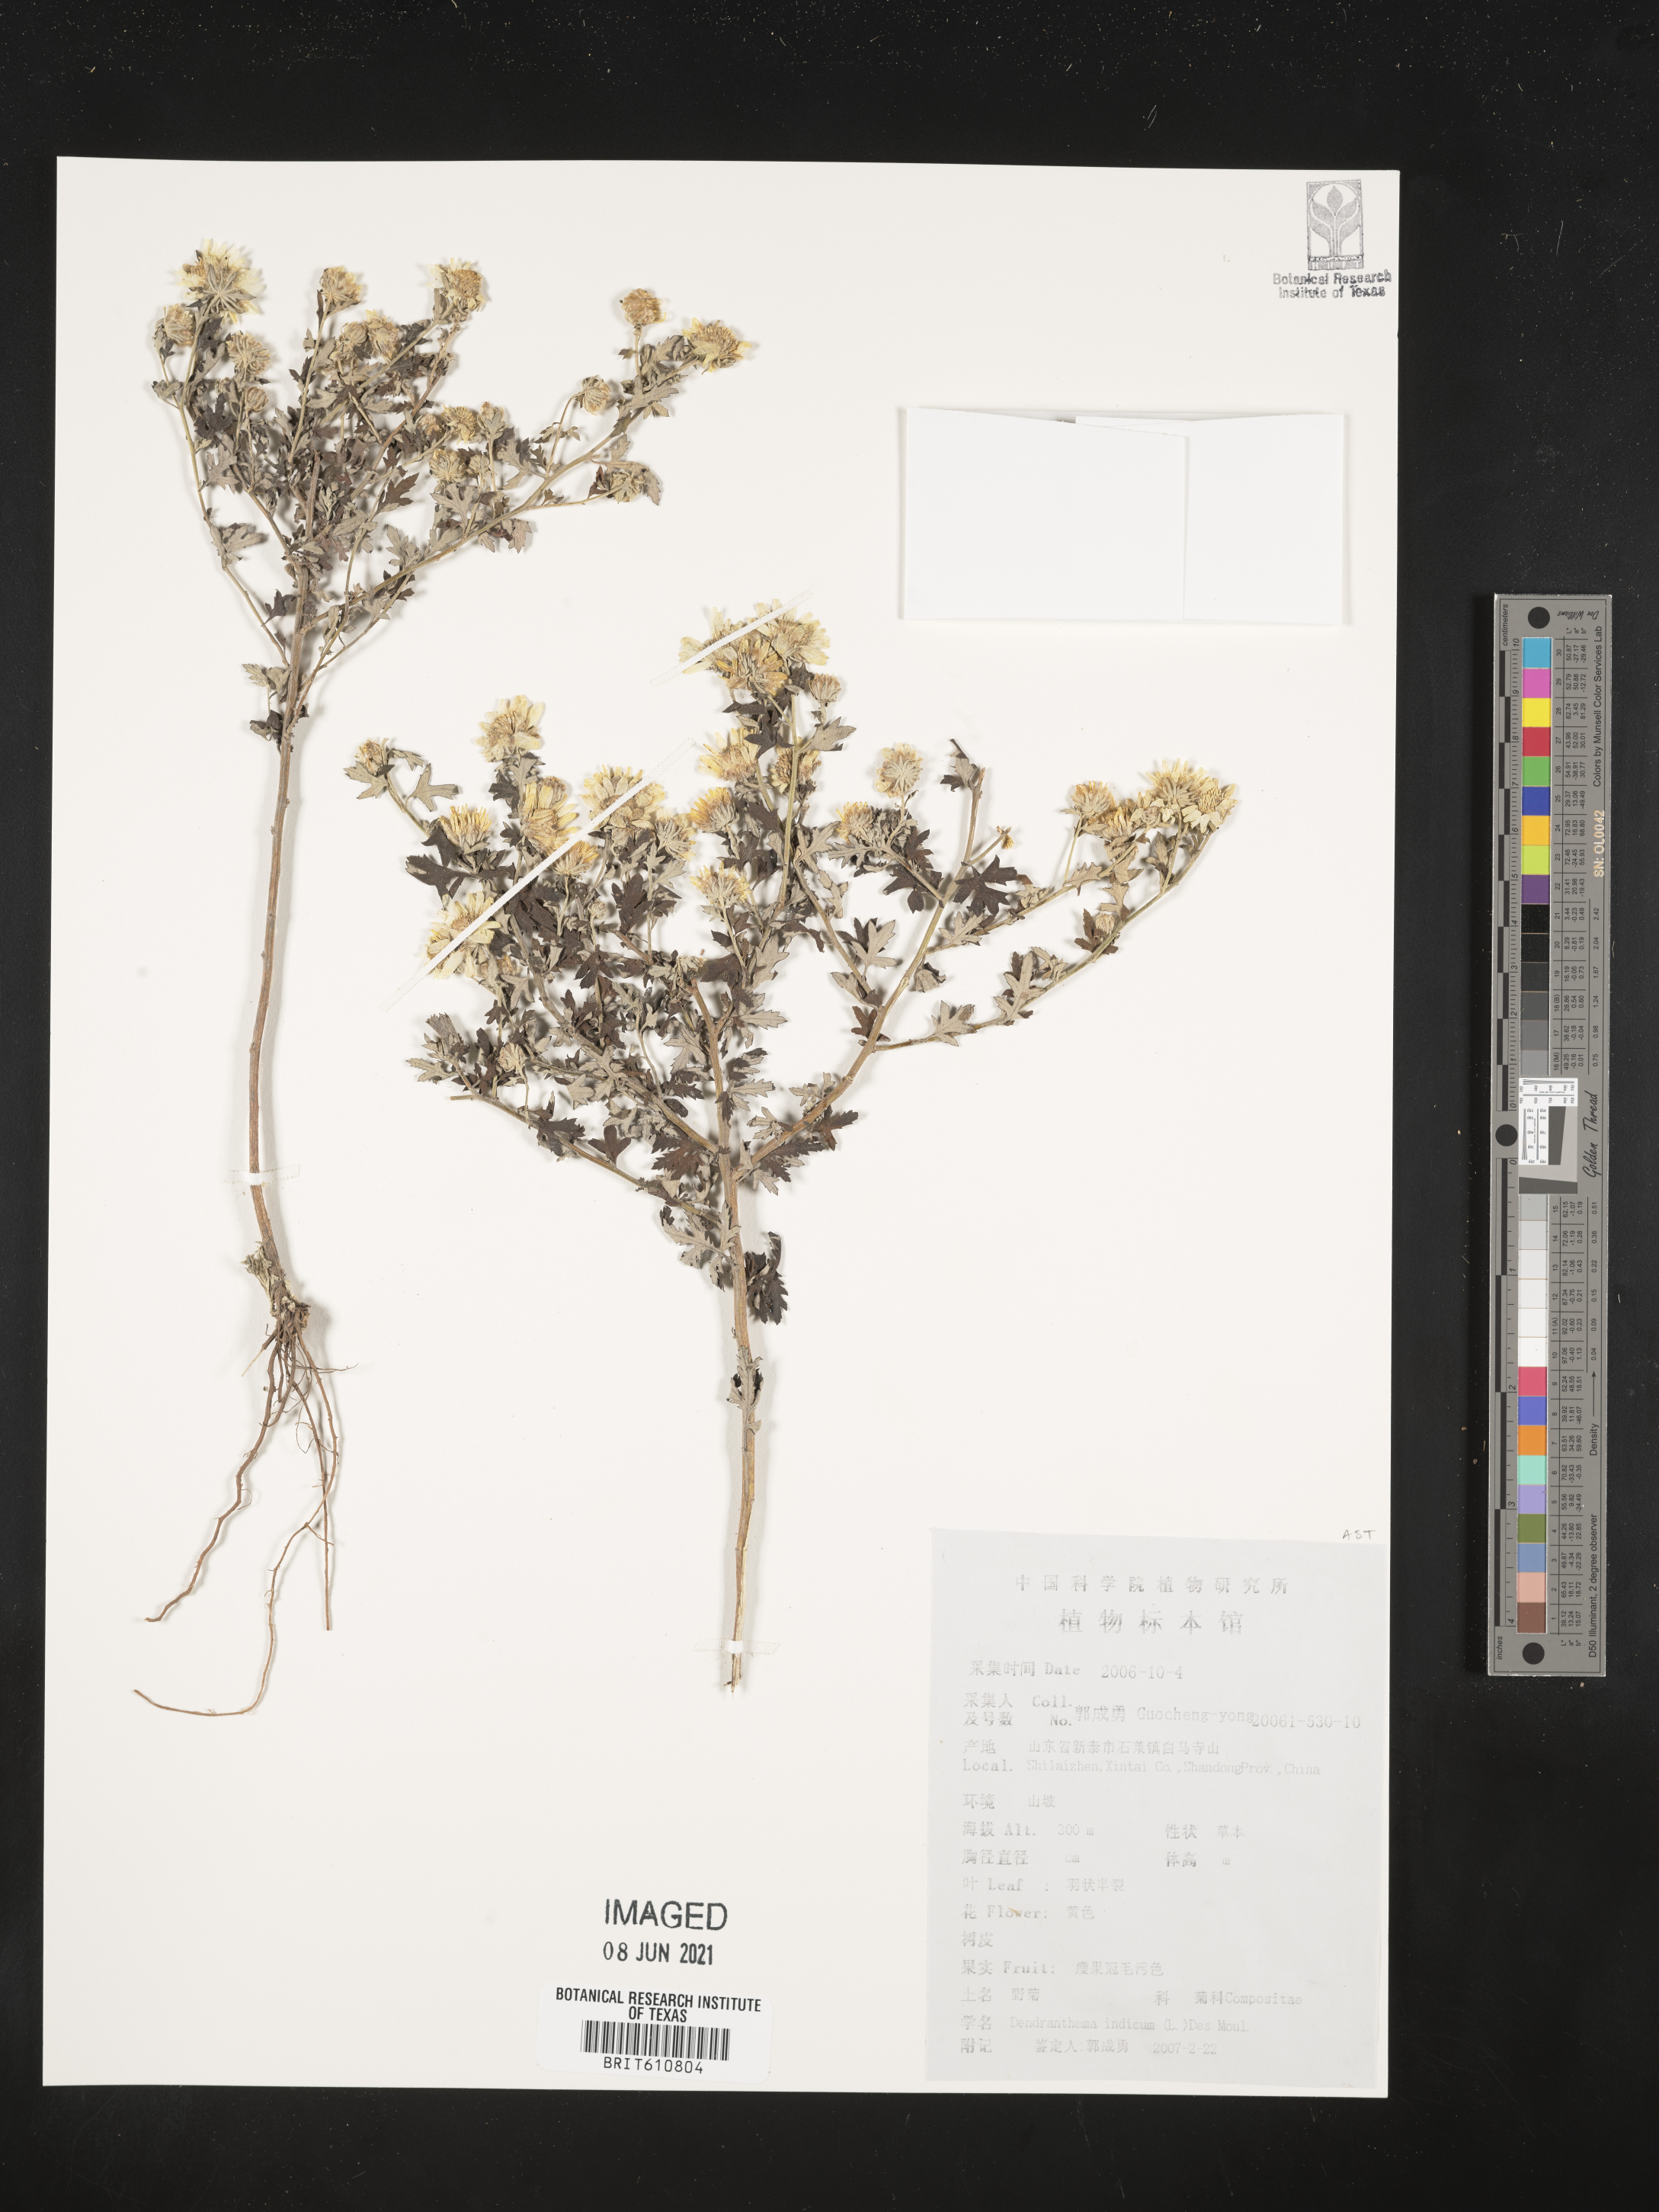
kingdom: Plantae
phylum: Tracheophyta
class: Magnoliopsida
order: Asterales
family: Asteraceae
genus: Chrysanthemum
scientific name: Chrysanthemum indicum
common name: Indian chrysanthemum
